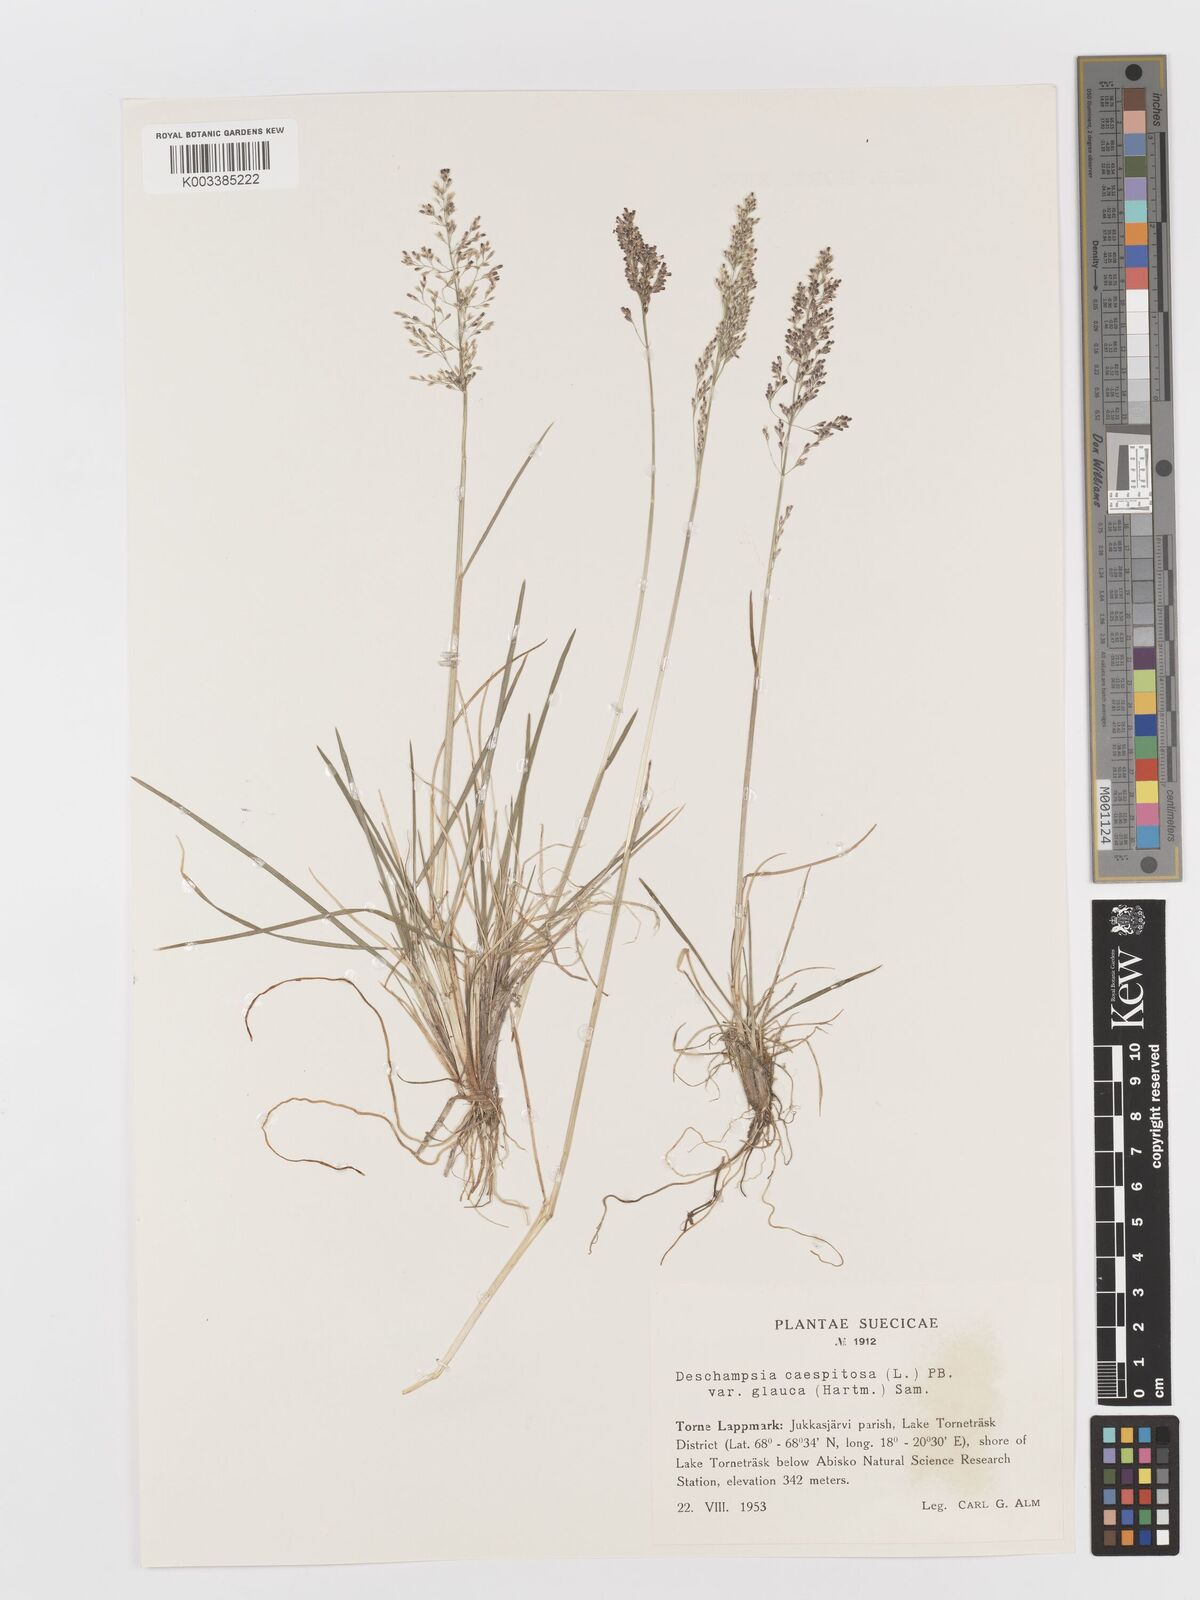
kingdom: Plantae
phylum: Tracheophyta
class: Liliopsida
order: Poales
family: Poaceae
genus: Deschampsia
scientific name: Deschampsia cespitosa
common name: Tufted hair-grass
